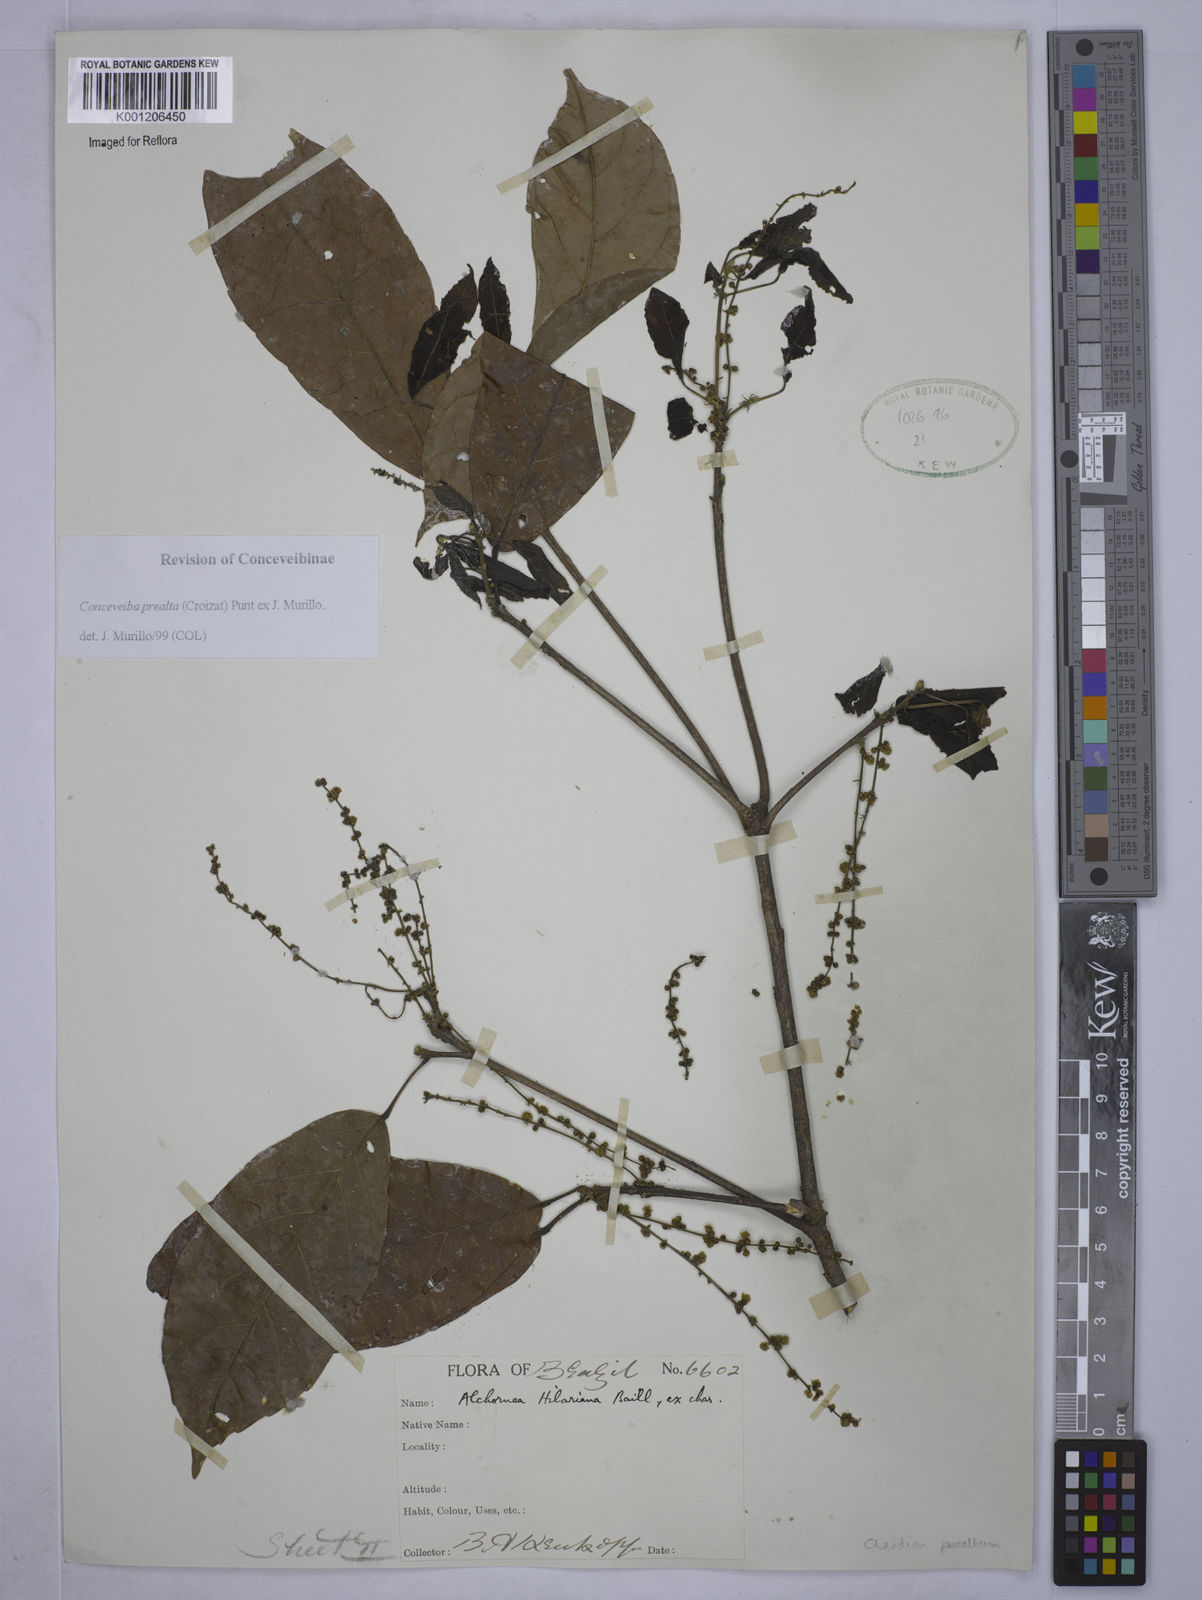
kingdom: Plantae
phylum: Tracheophyta
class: Magnoliopsida
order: Malpighiales
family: Euphorbiaceae
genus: Conceveiba
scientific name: Conceveiba praealta
